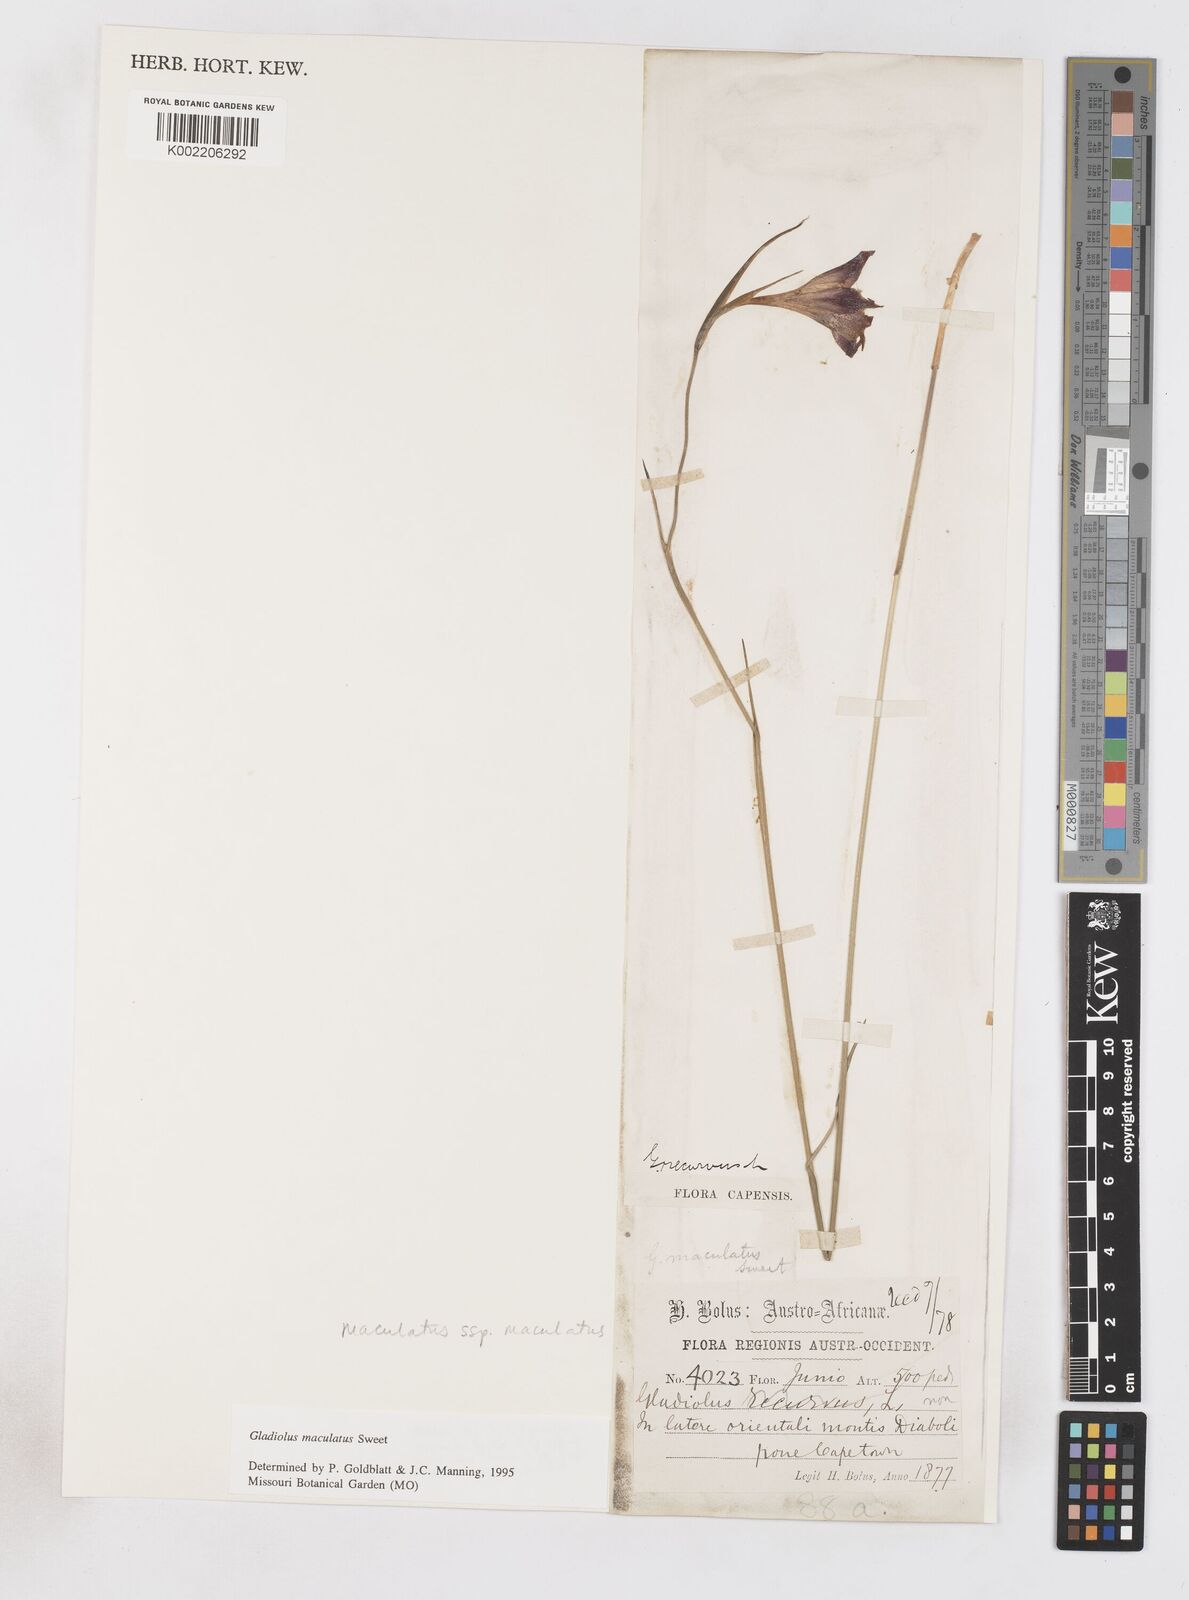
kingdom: Plantae
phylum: Tracheophyta
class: Liliopsida
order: Asparagales
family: Iridaceae
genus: Gladiolus
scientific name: Gladiolus maculatus
